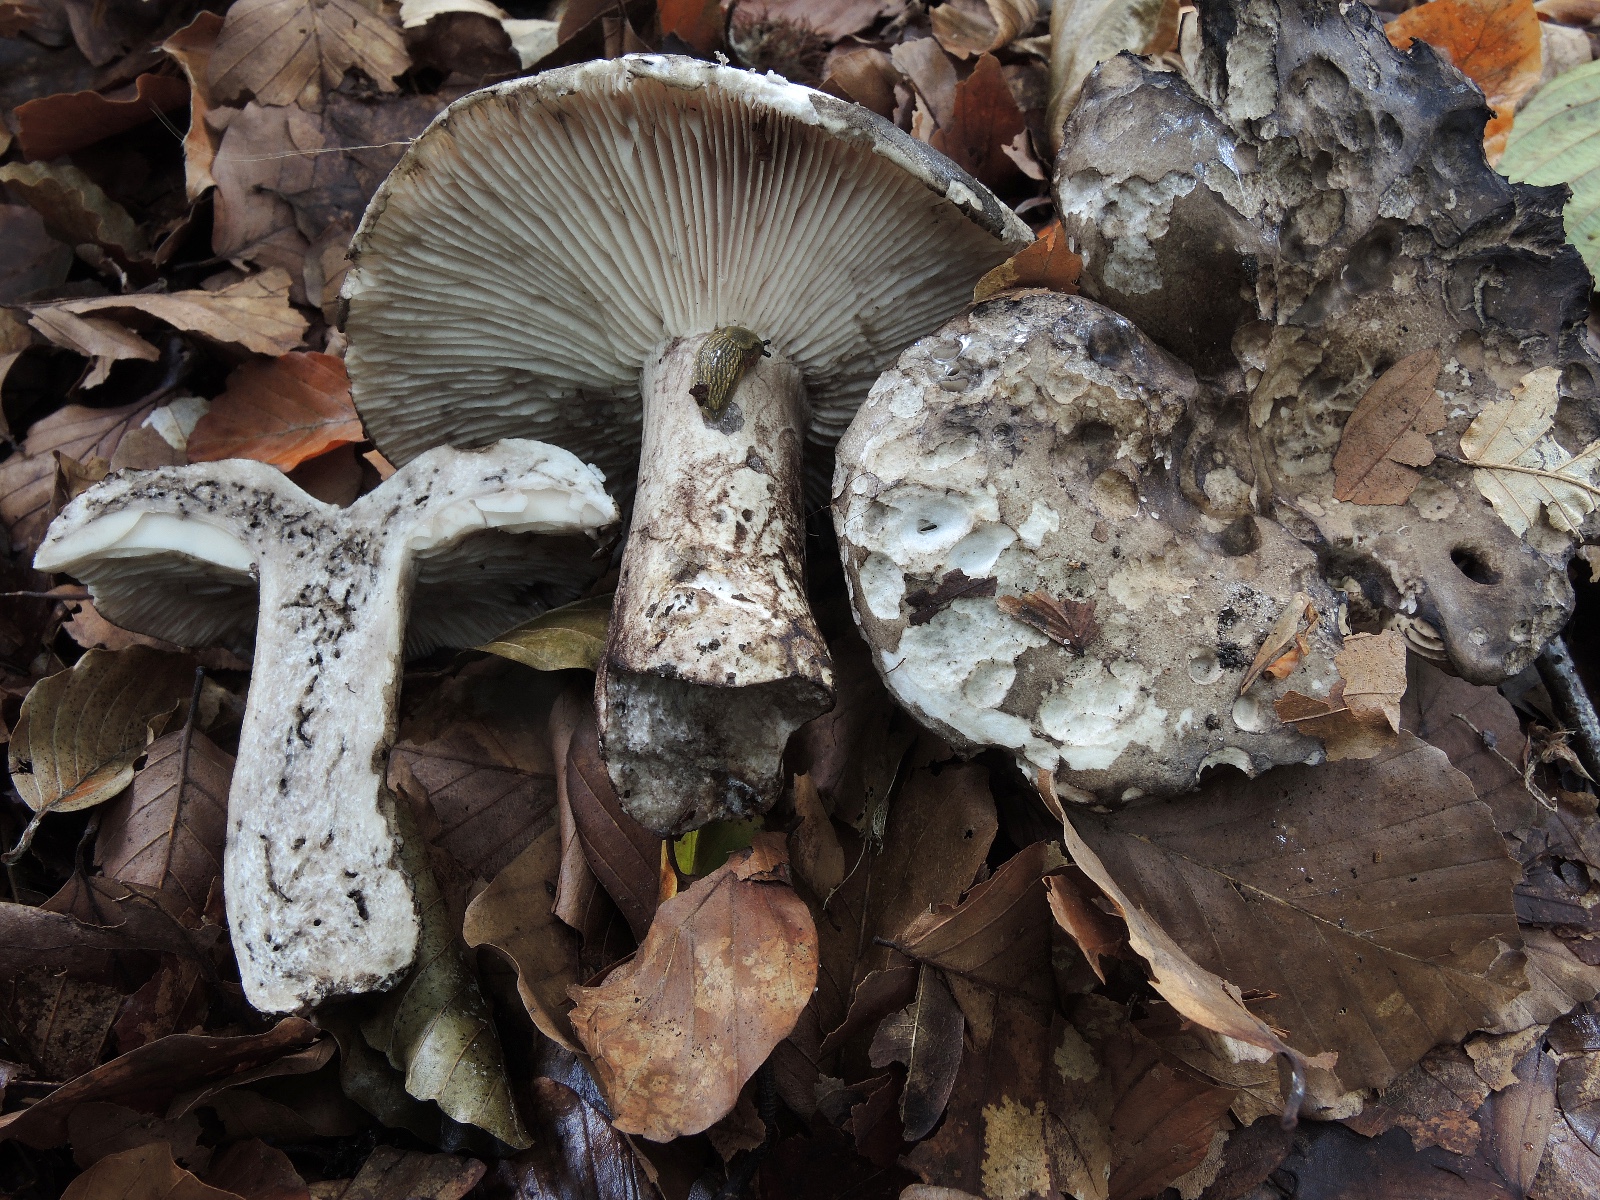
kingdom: Fungi
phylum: Basidiomycota
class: Agaricomycetes
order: Russulales
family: Russulaceae
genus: Russula
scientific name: Russula
